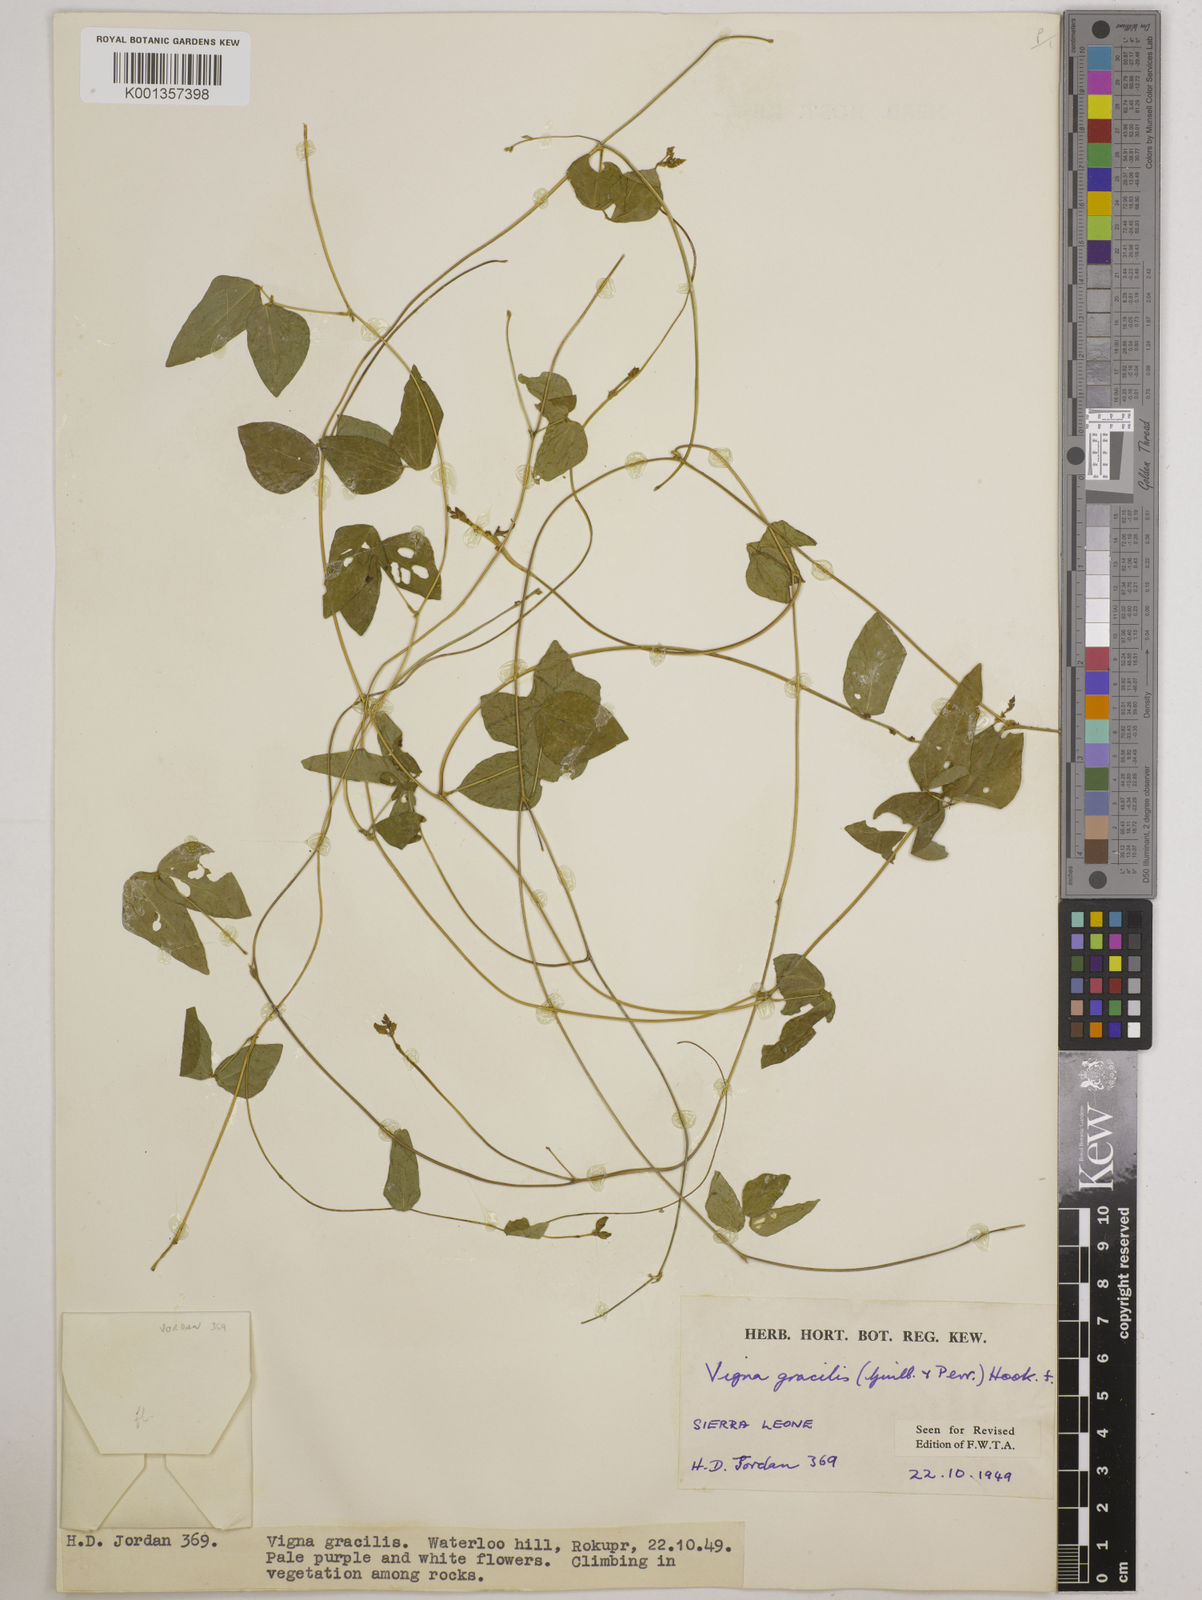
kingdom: Plantae
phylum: Tracheophyta
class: Magnoliopsida
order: Fabales
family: Fabaceae
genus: Vigna
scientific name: Vigna gracilis
